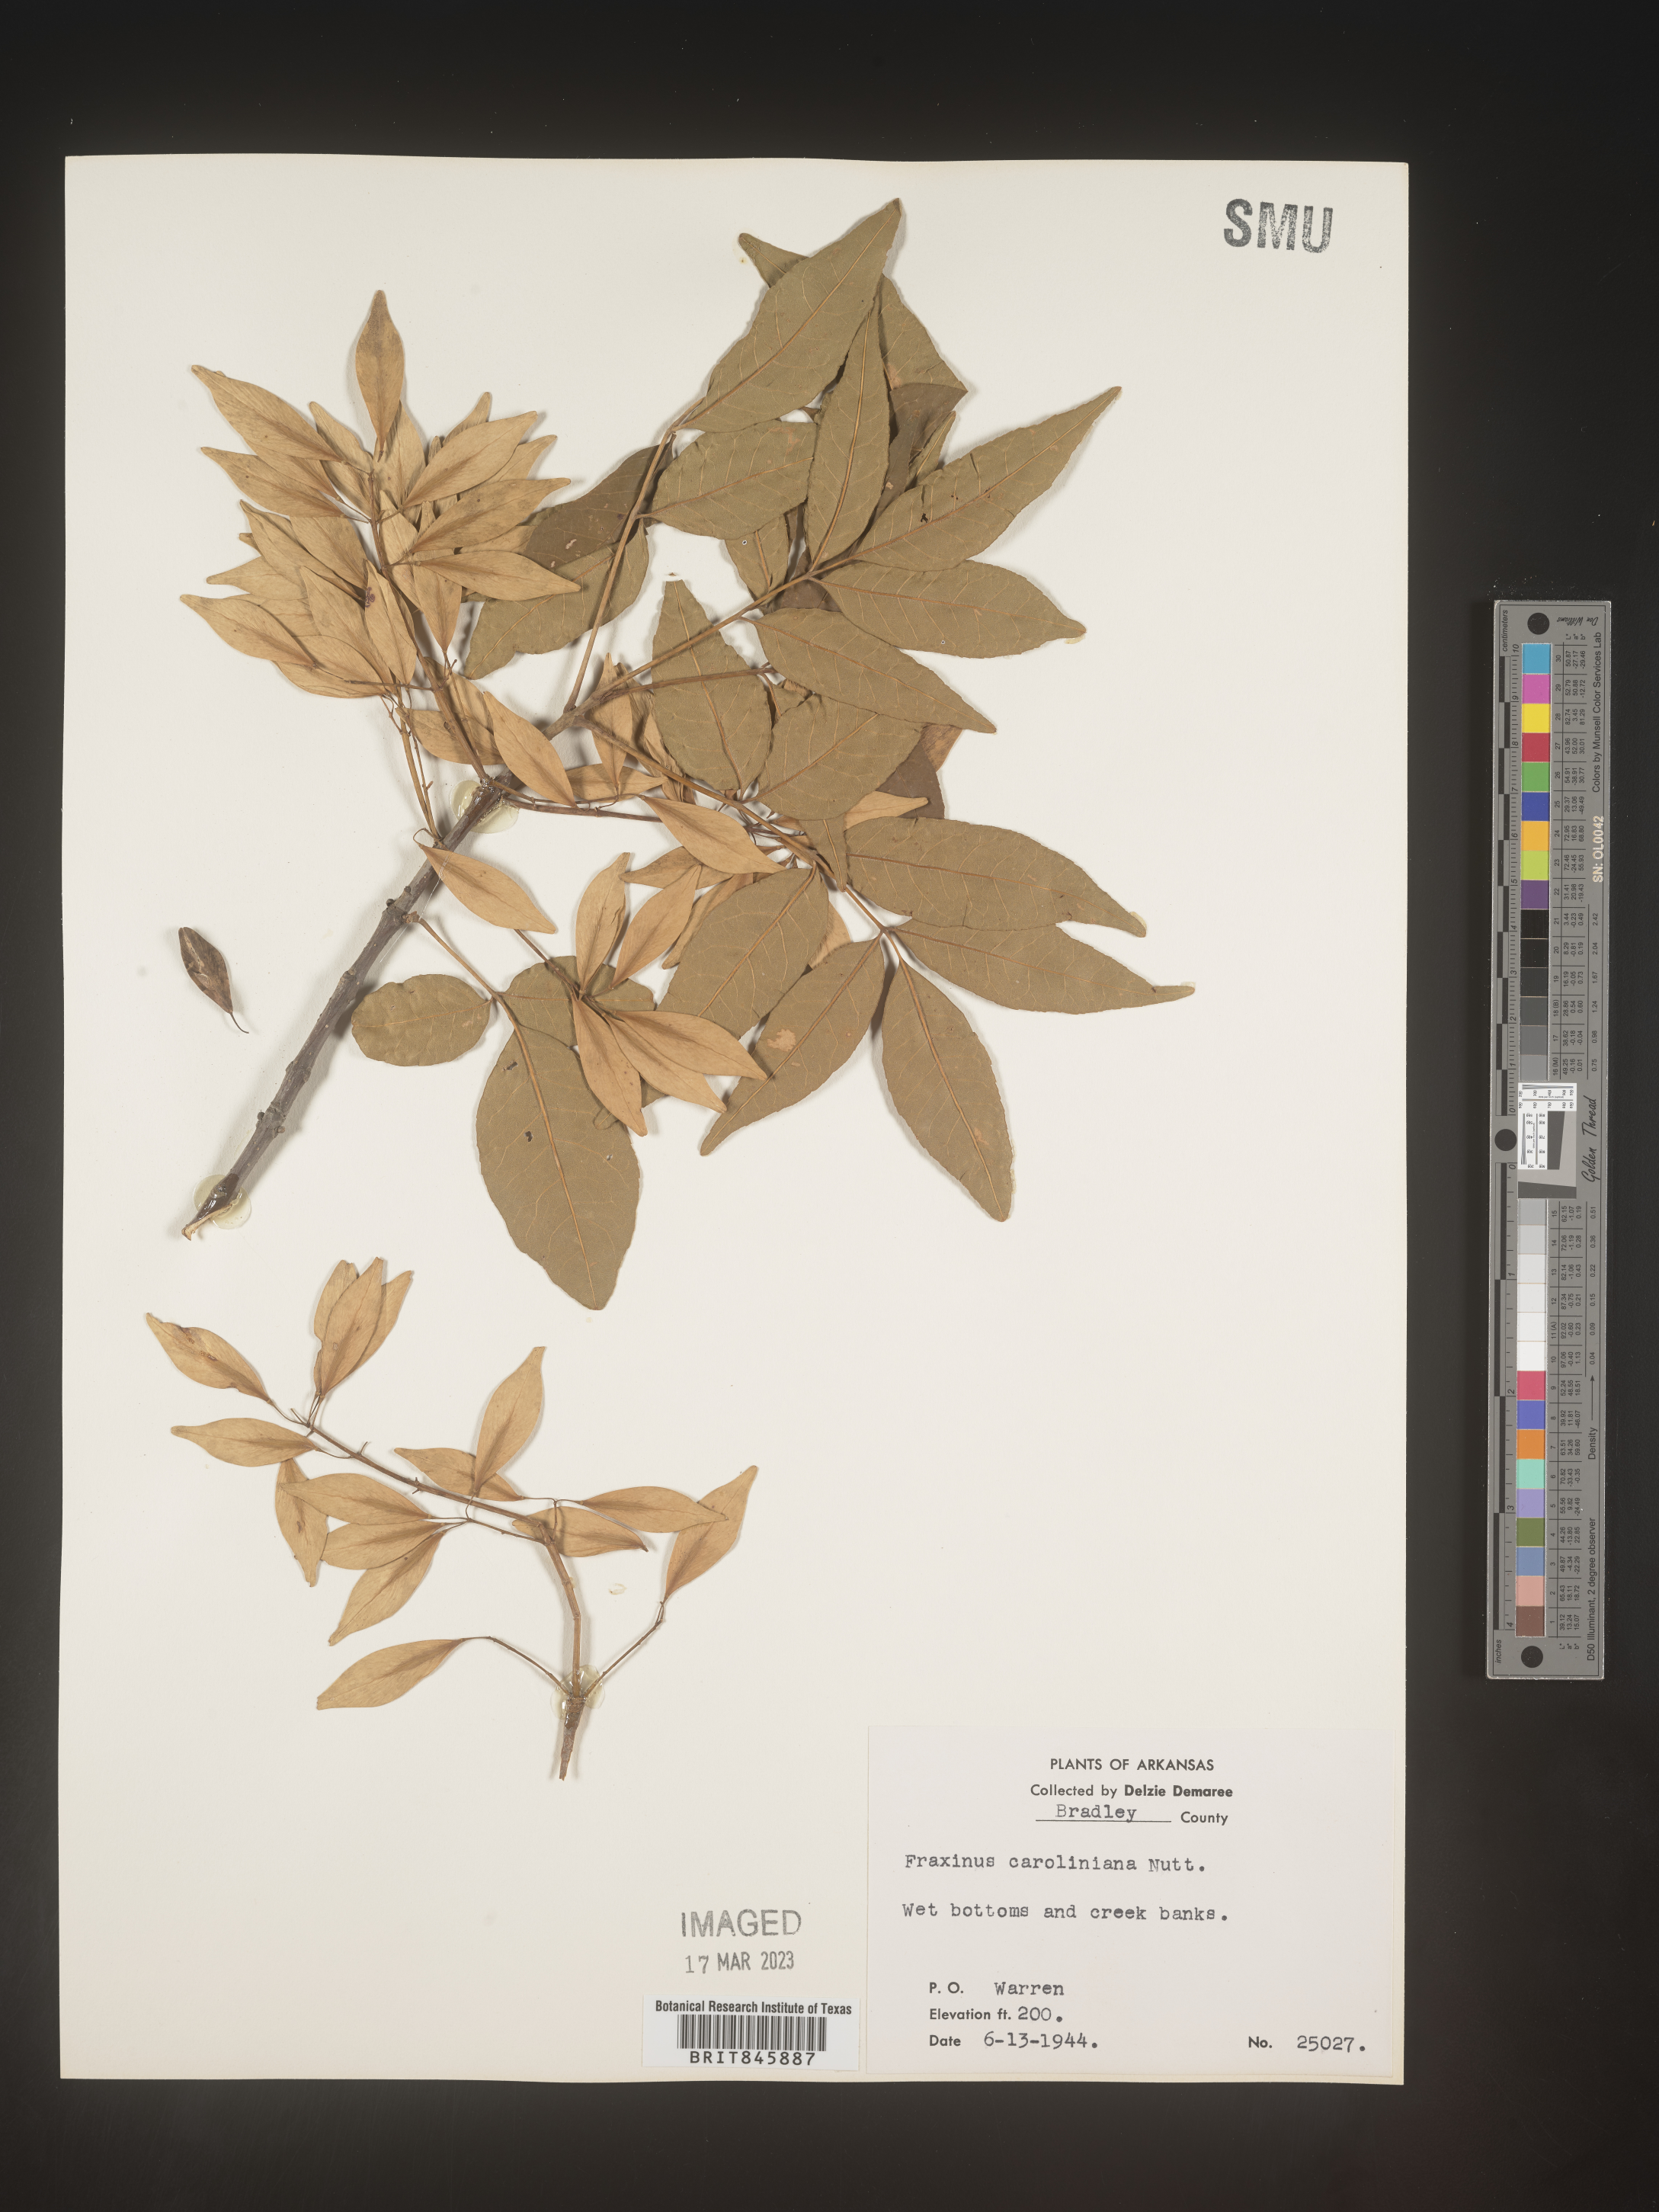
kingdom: Plantae
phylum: Tracheophyta
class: Magnoliopsida
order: Lamiales
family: Oleaceae
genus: Fraxinus
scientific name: Fraxinus caroliniana
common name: Carolina ash
